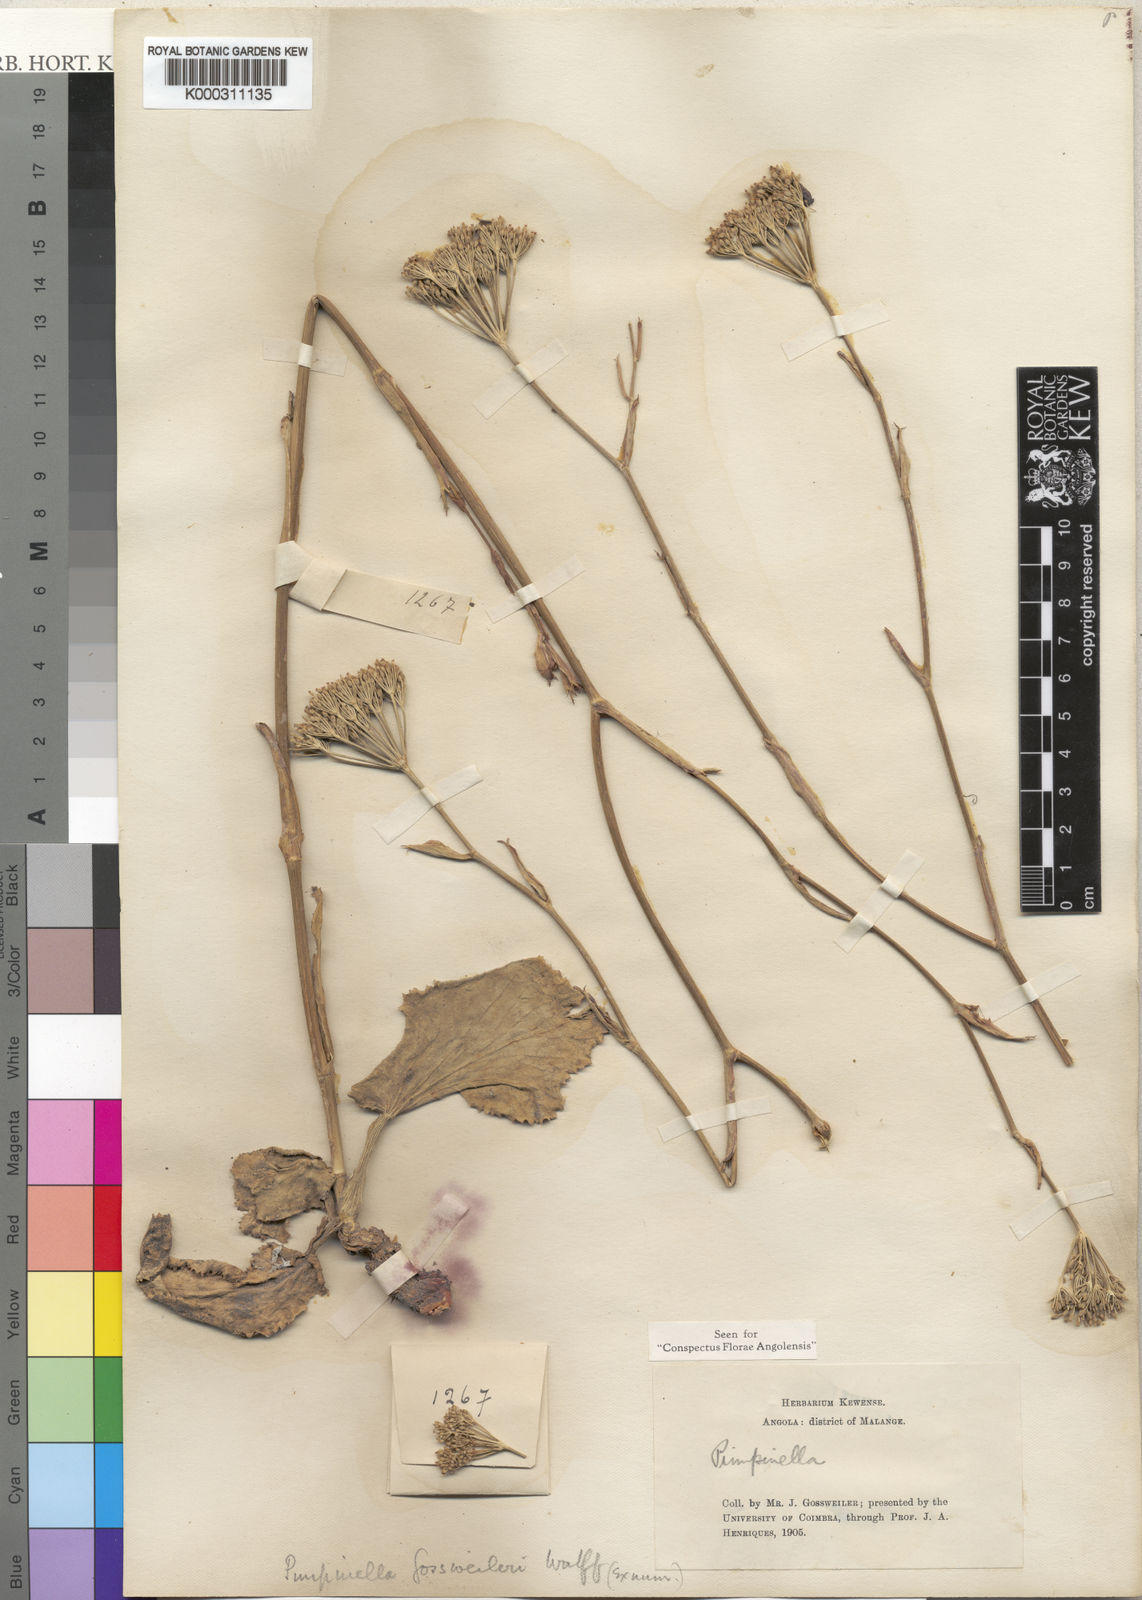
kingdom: Plantae
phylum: Tracheophyta
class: Magnoliopsida
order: Apiales
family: Apiaceae
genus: Pimpinella
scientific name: Pimpinella huillensis
